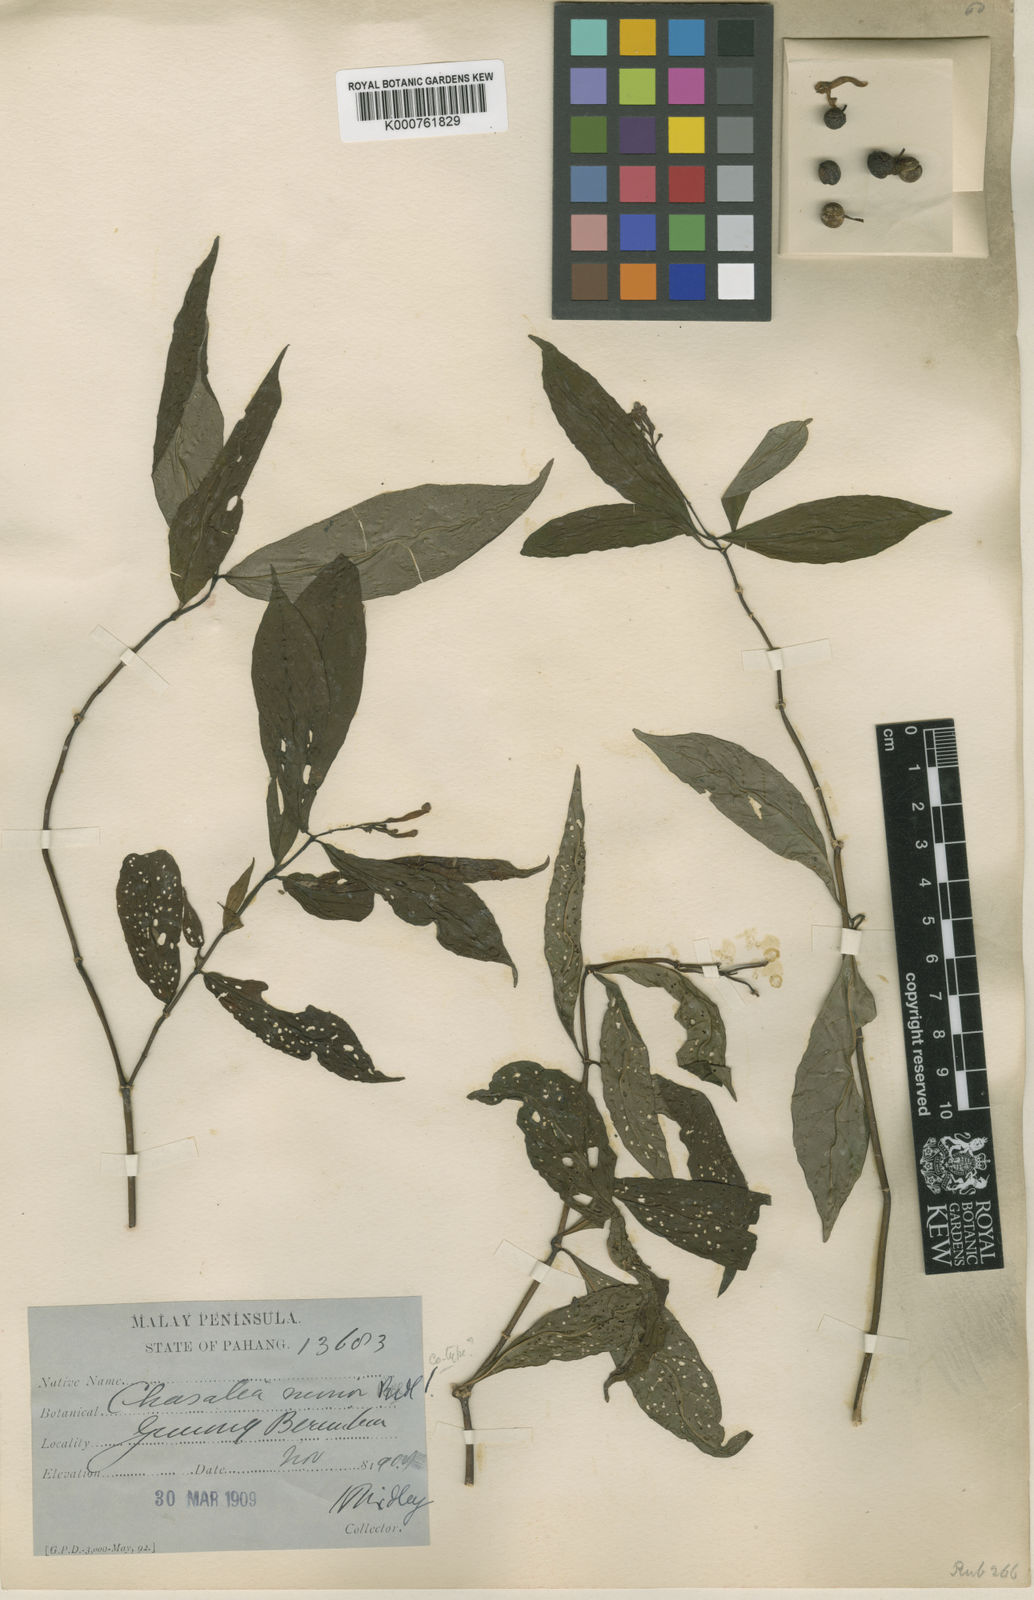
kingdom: Plantae
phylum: Tracheophyta
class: Magnoliopsida
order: Gentianales
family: Rubiaceae
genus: Chassalia
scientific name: Chassalia minor
